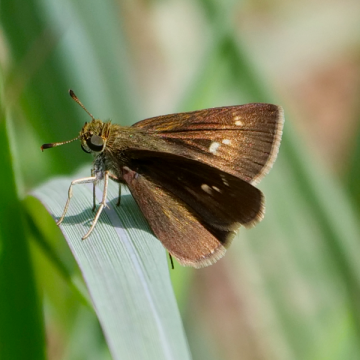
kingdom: Animalia
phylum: Arthropoda
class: Insecta
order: Lepidoptera
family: Hesperiidae
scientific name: Hesperiidae
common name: Skippers
